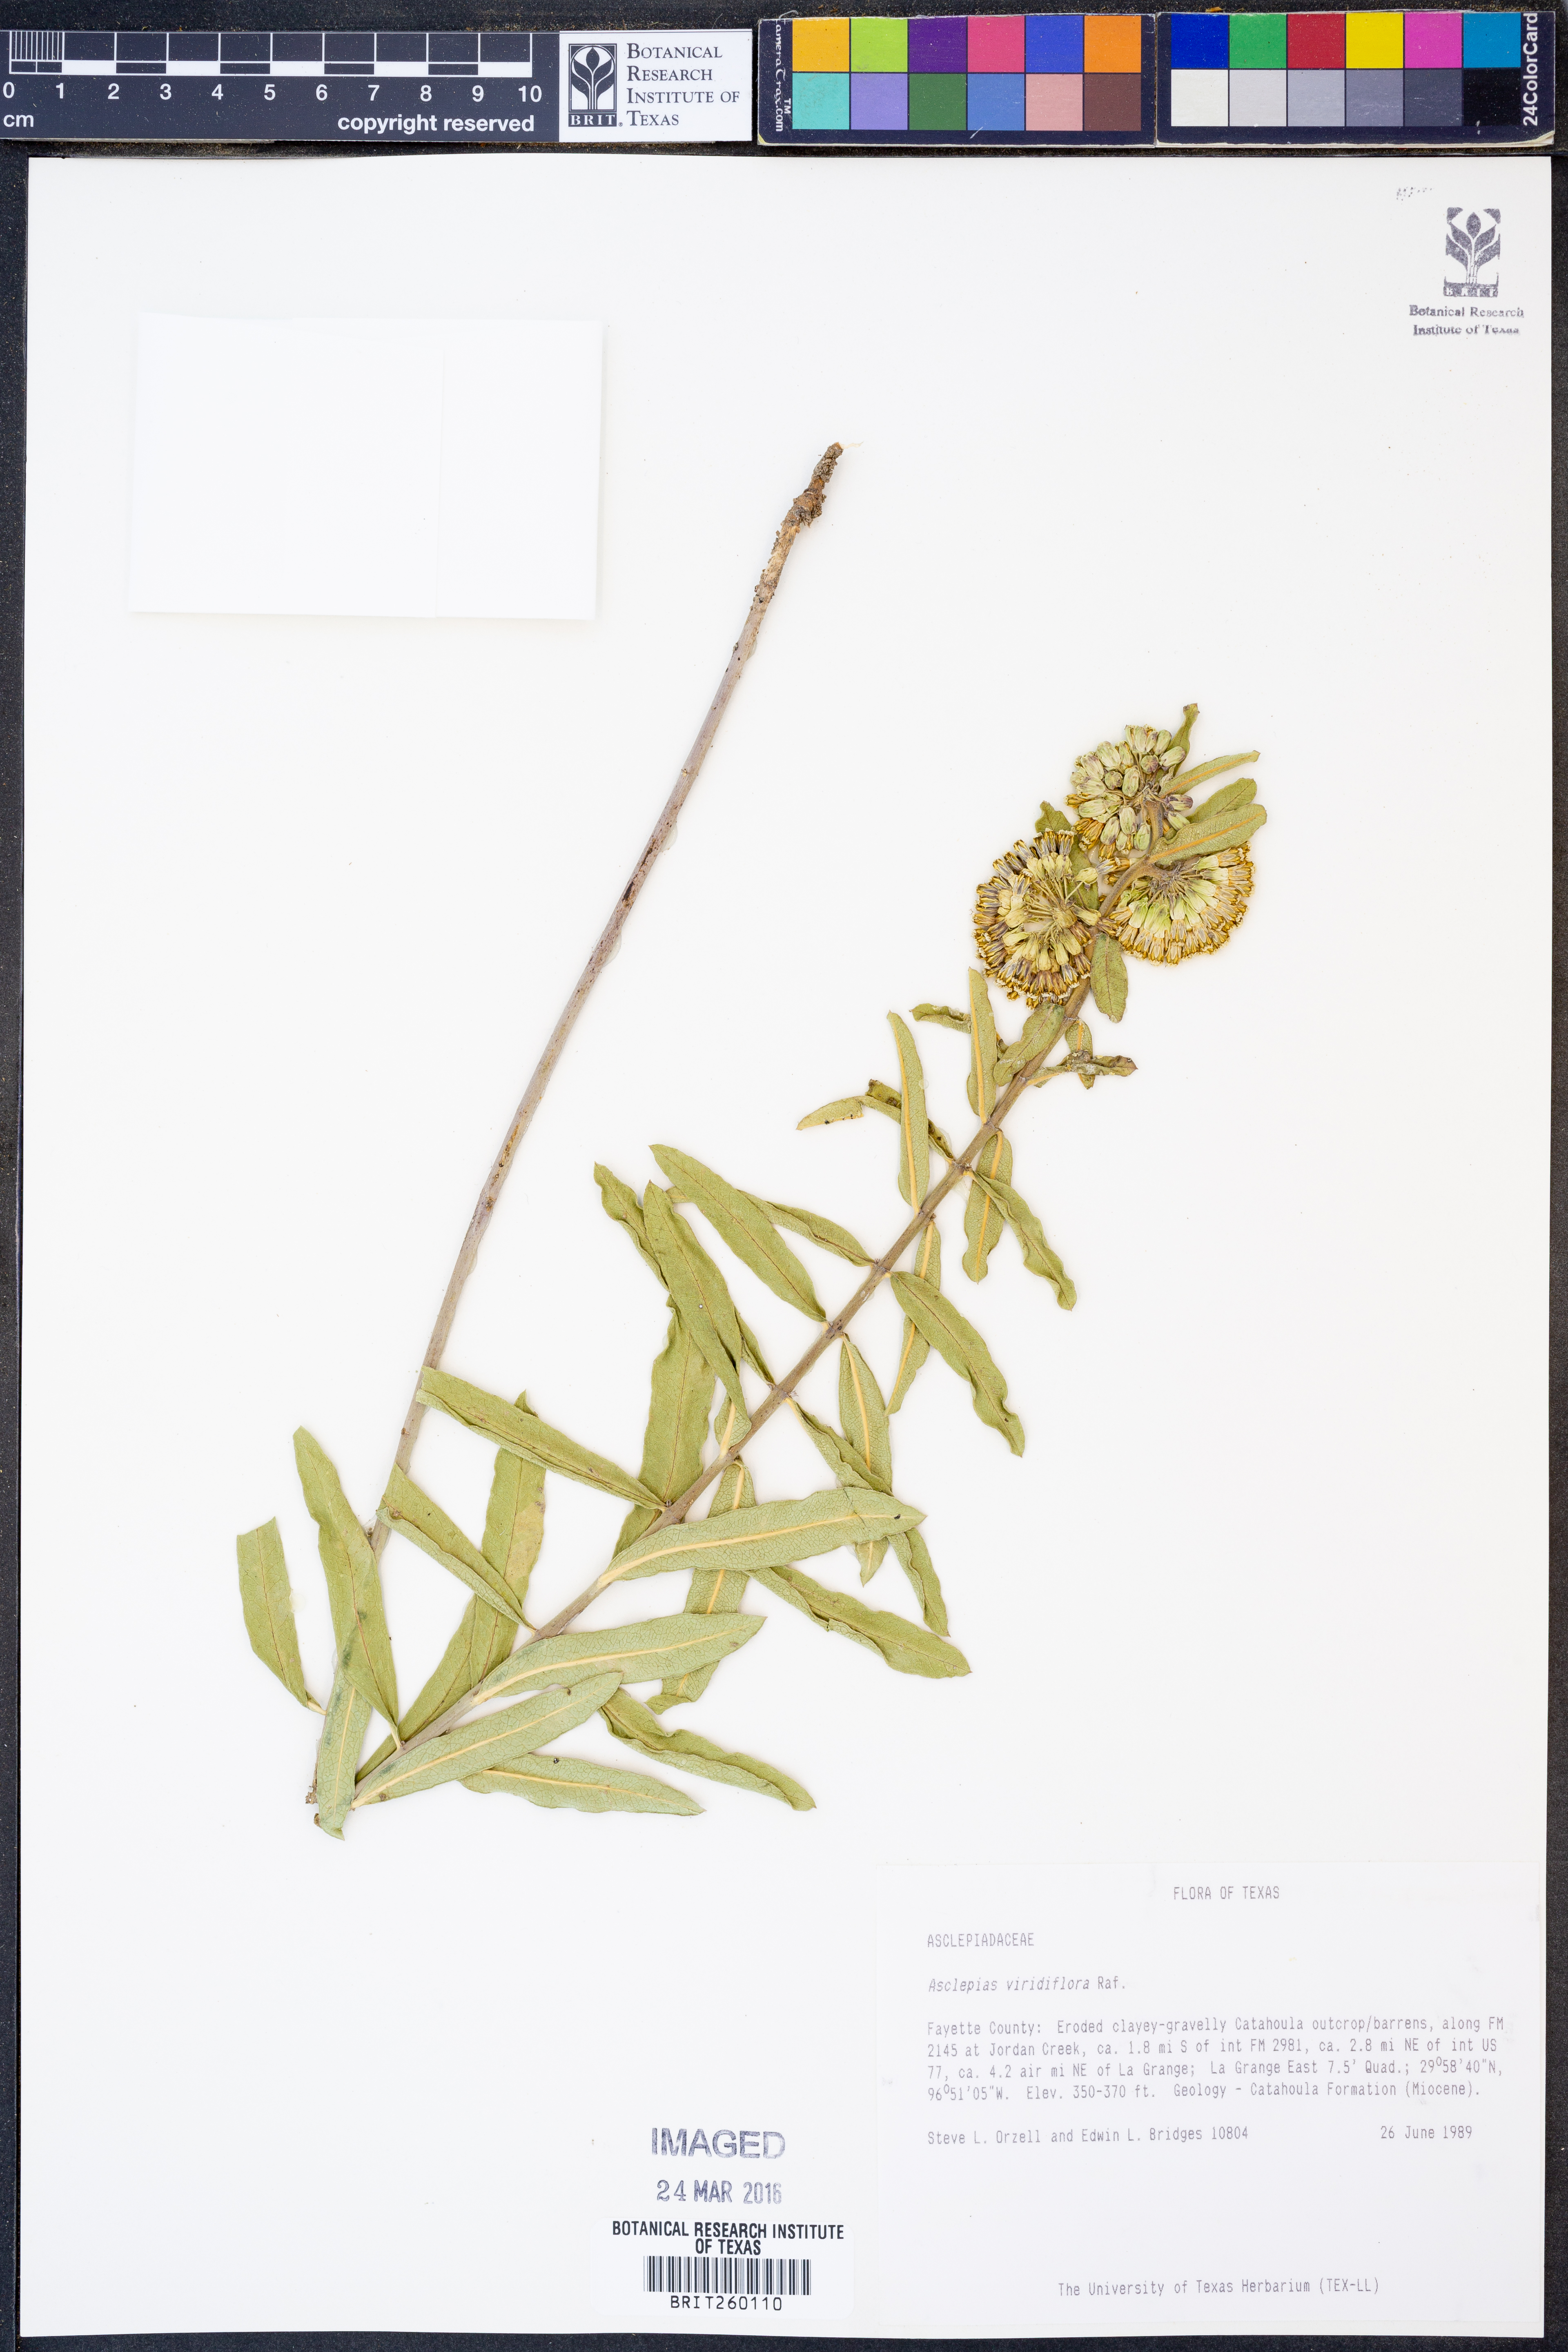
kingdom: Plantae
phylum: Tracheophyta
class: Magnoliopsida
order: Gentianales
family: Apocynaceae
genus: Asclepias
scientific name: Asclepias viridiflora
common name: Green comet milkweed
